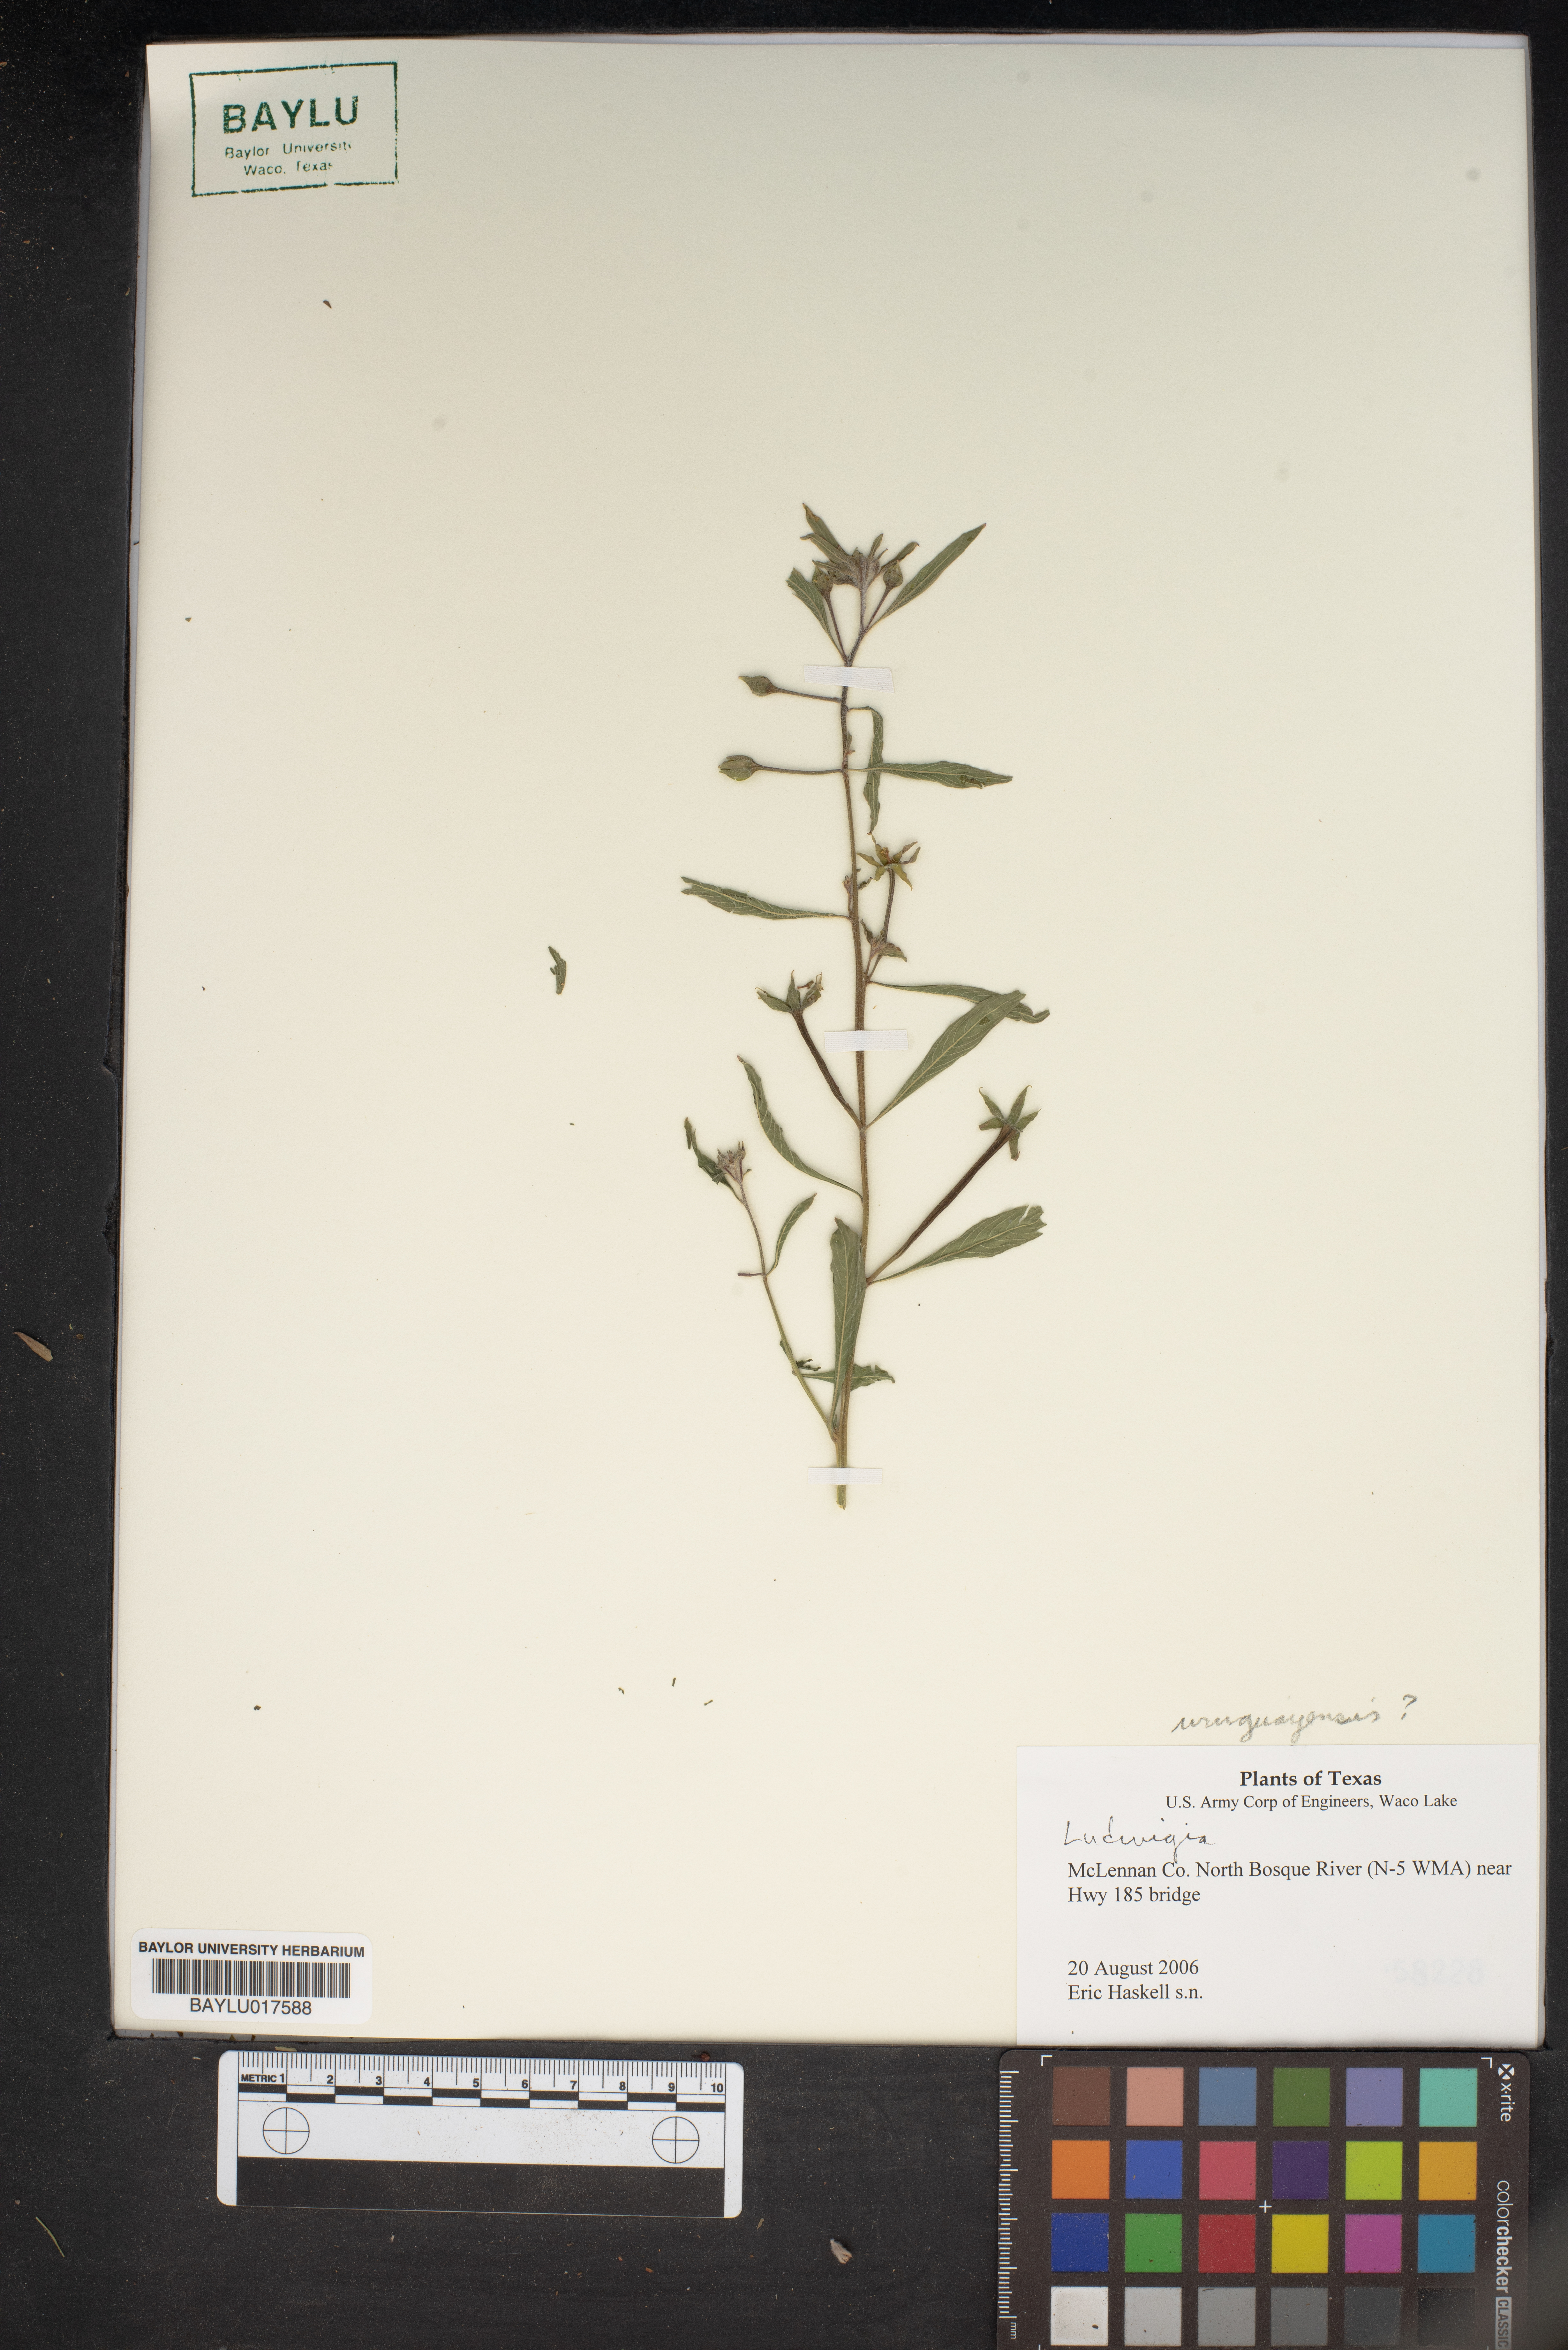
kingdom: Plantae
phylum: Tracheophyta
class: Magnoliopsida
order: Myrtales
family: Onagraceae
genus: Ludwigia
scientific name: Ludwigia
